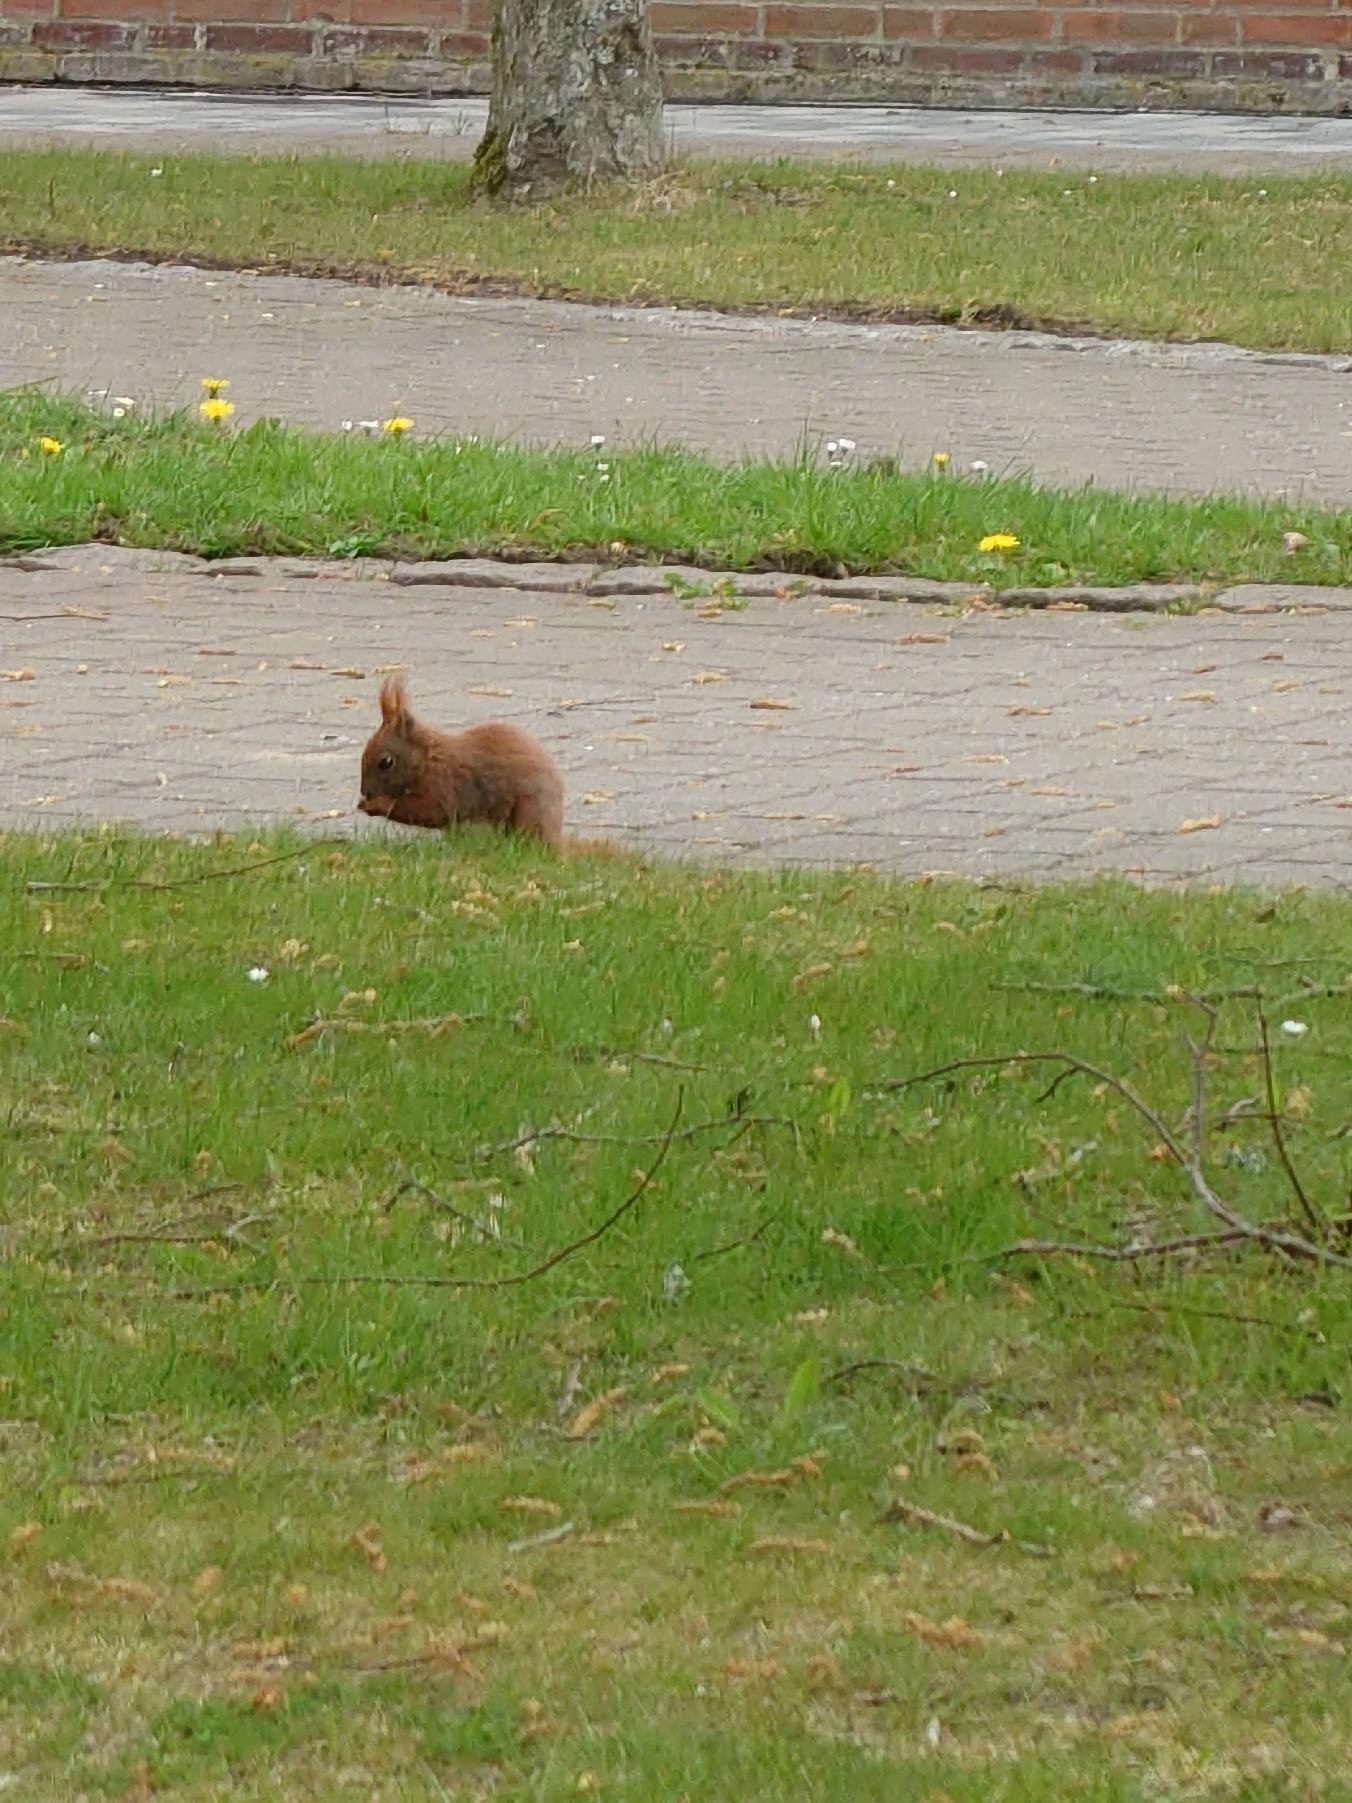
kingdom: Animalia
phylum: Chordata
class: Mammalia
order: Rodentia
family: Sciuridae
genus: Sciurus
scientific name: Sciurus vulgaris
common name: Egern
